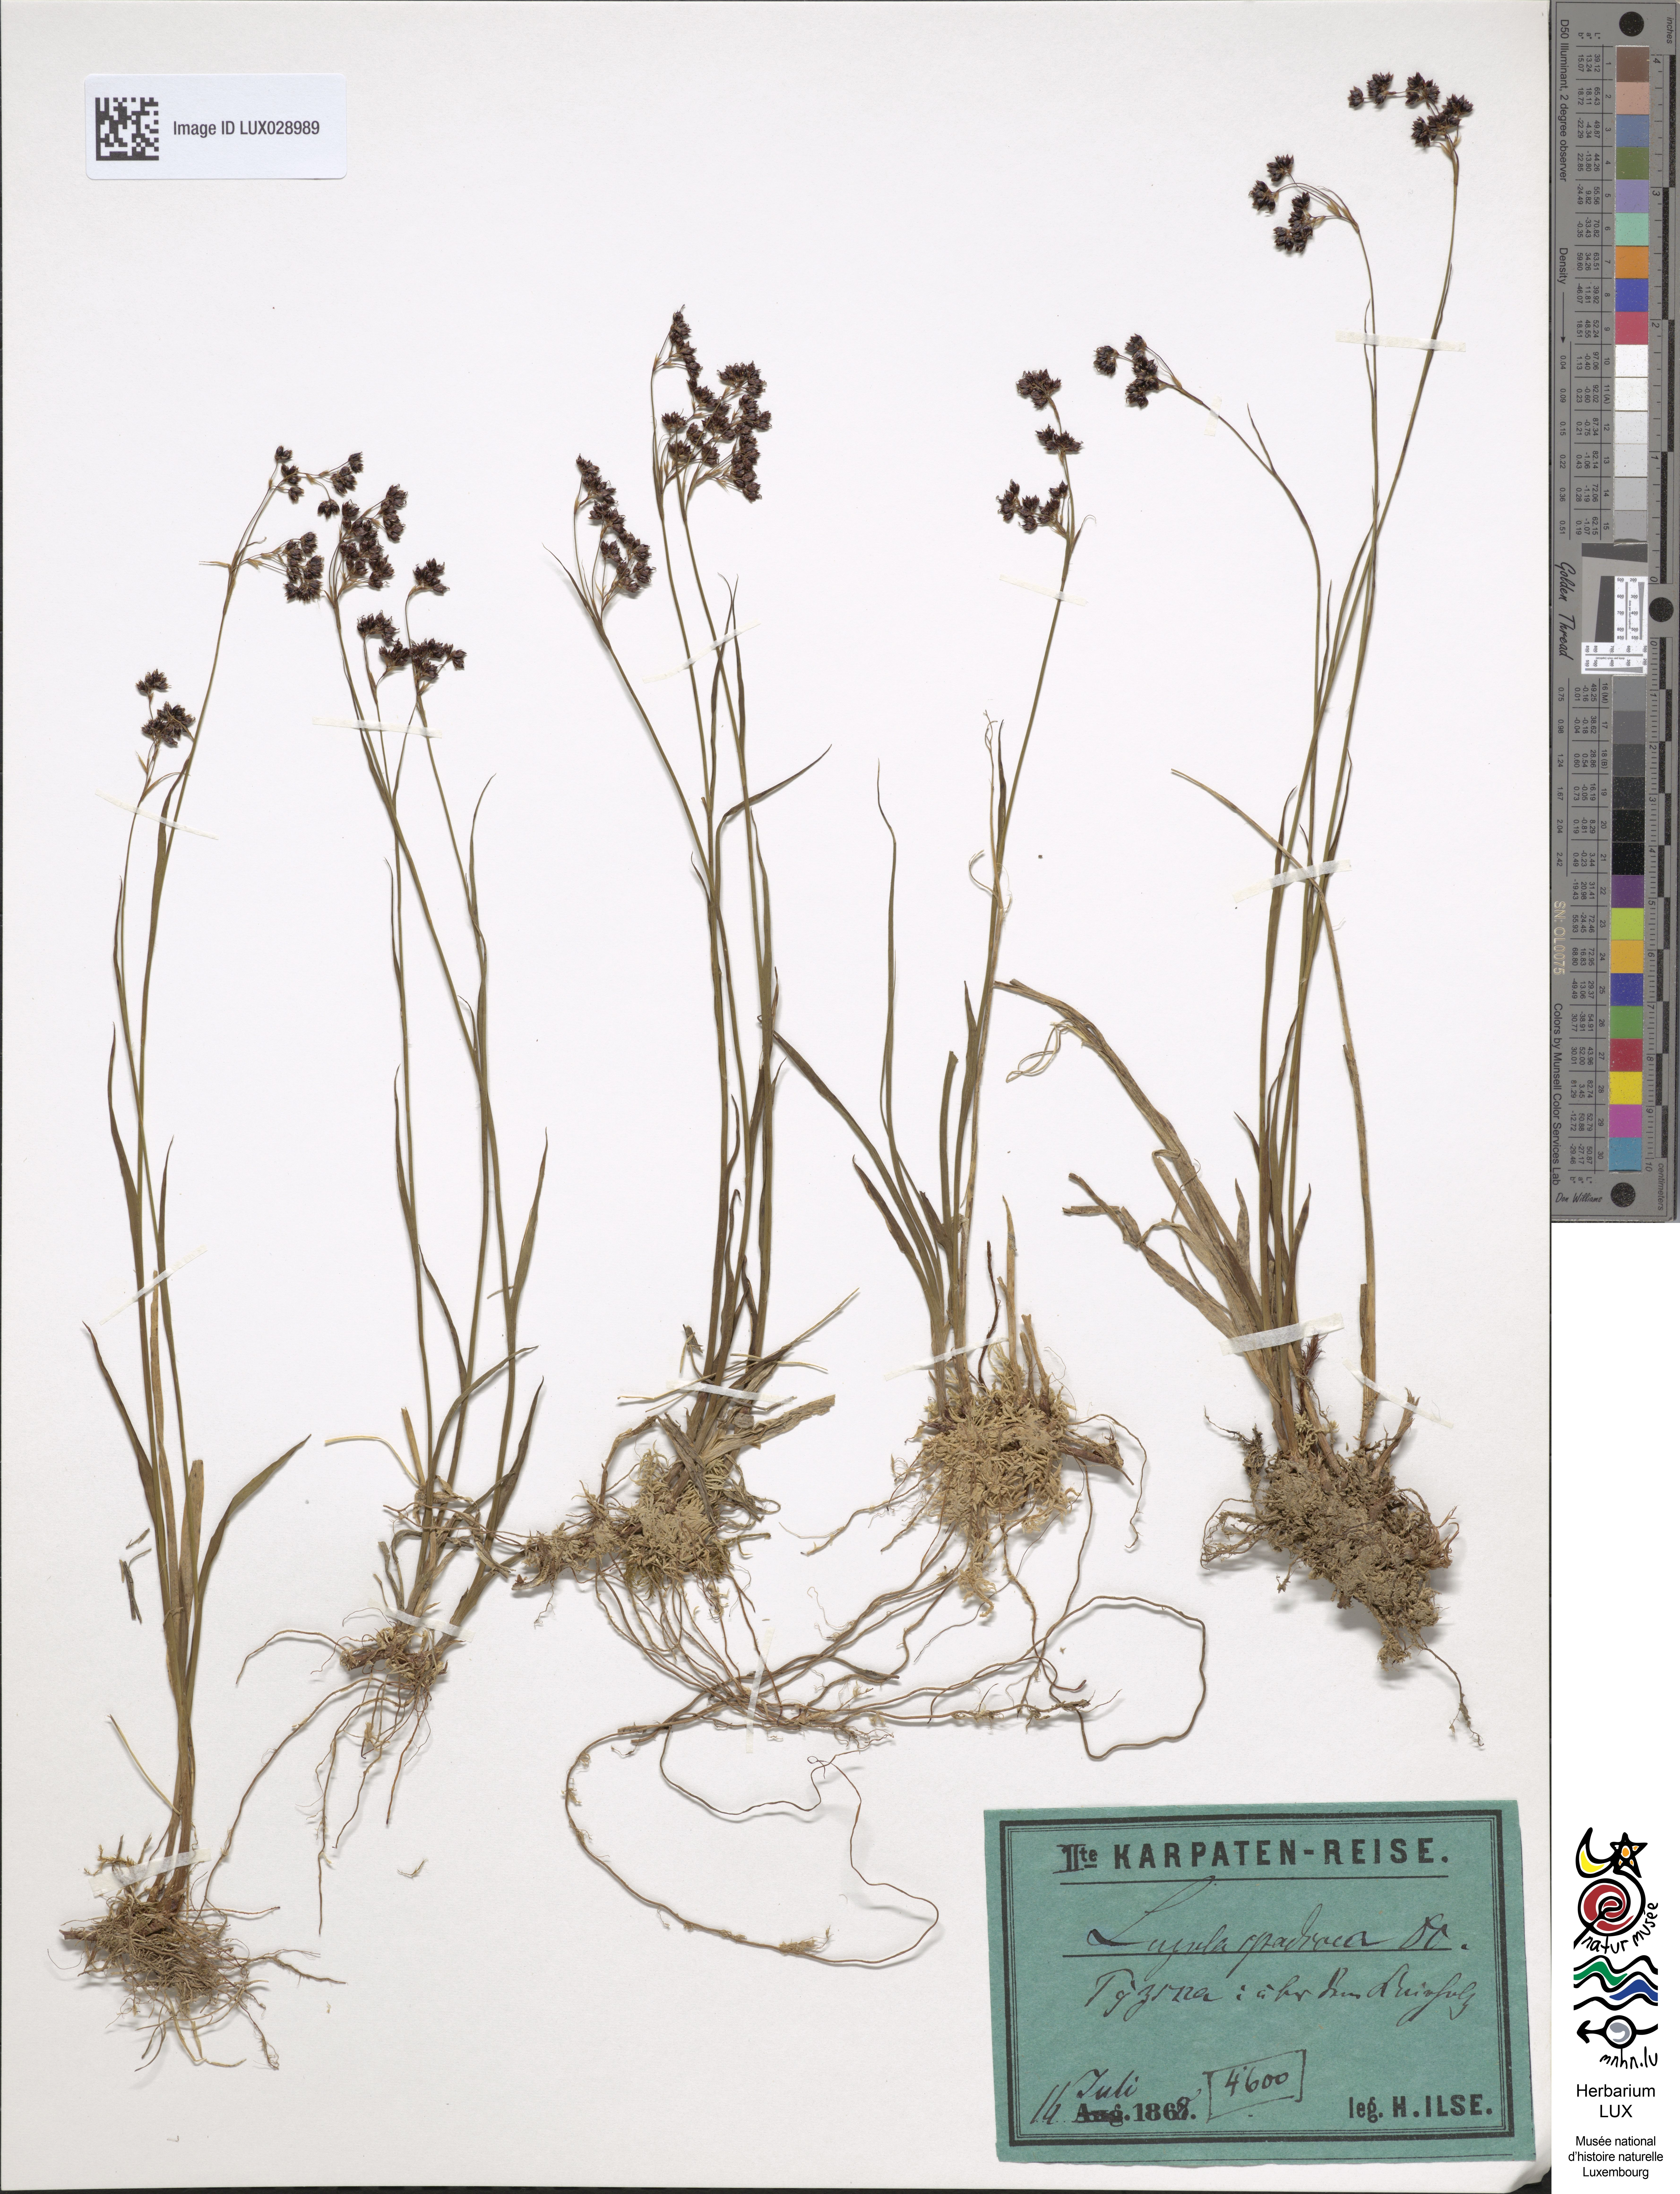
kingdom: Plantae
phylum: Tracheophyta
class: Liliopsida
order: Poales
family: Juncaceae
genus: Luzula
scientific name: Luzula alpinopilosa
